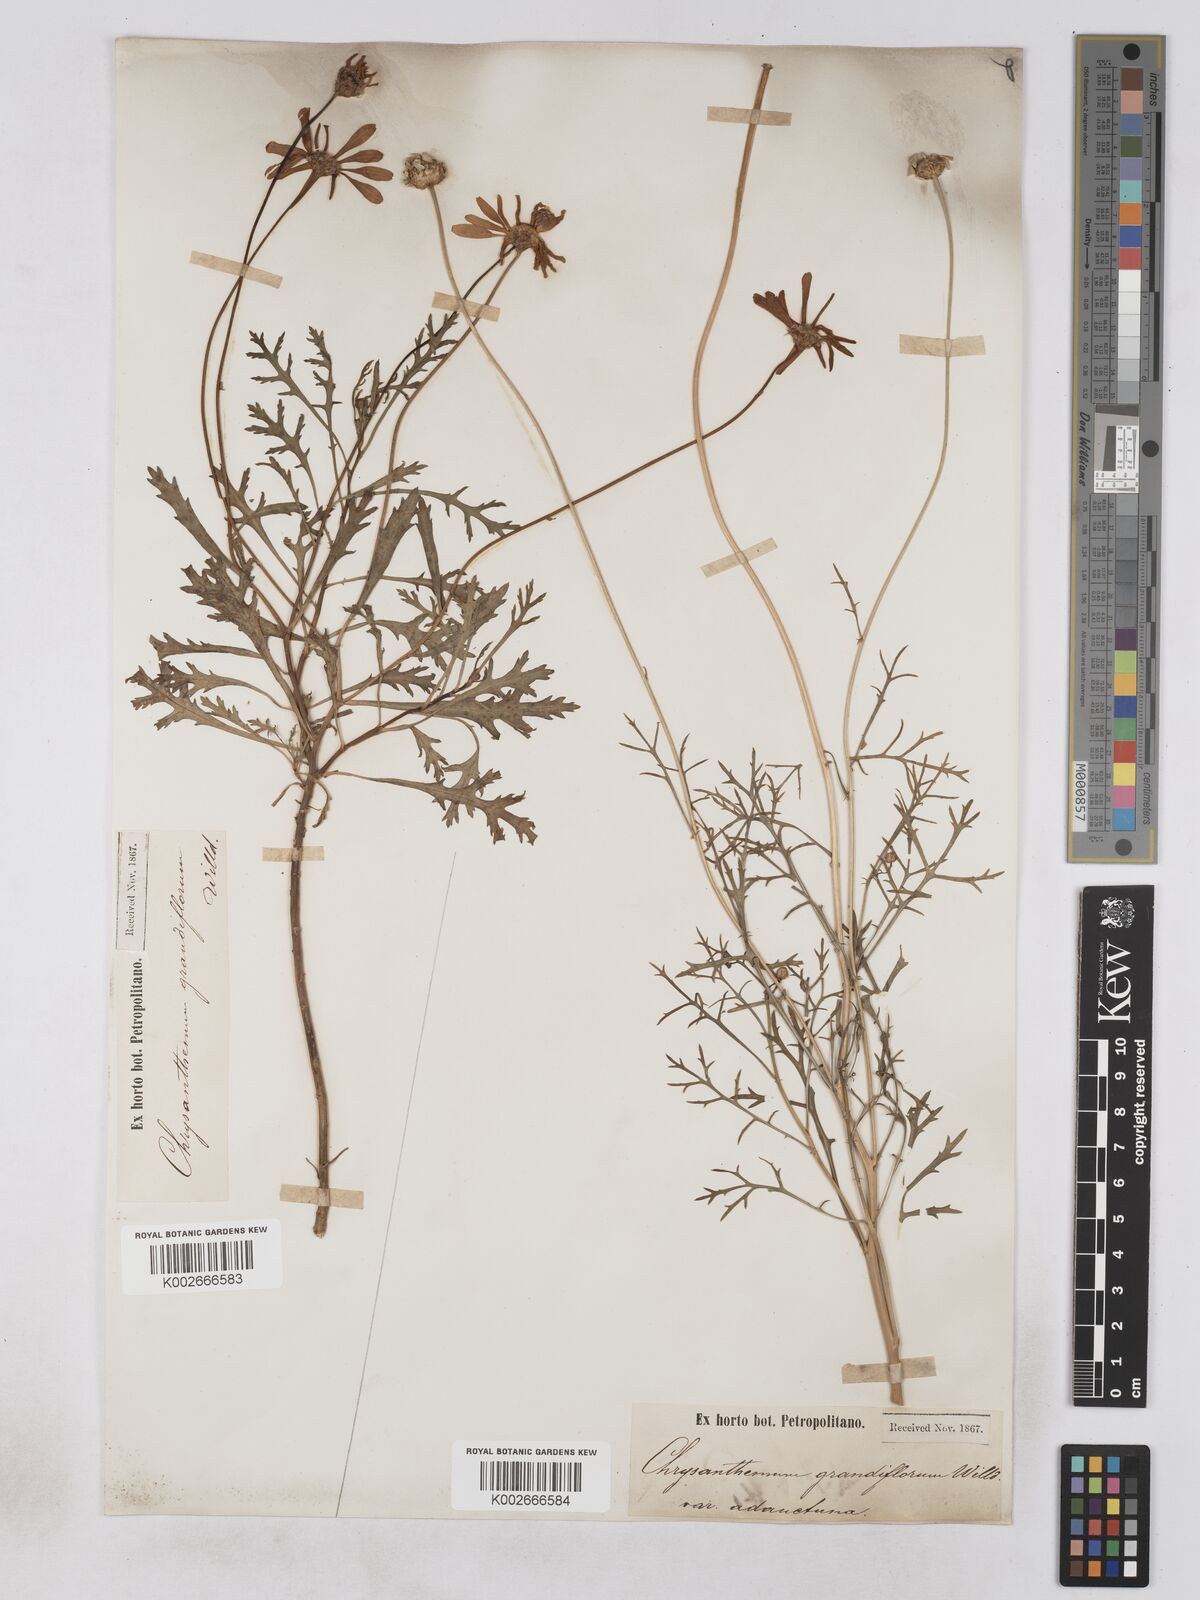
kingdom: Plantae
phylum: Tracheophyta
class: Magnoliopsida
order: Asterales
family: Asteraceae
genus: Argyranthemum
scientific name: Argyranthemum frutescens
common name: Paris daisy
